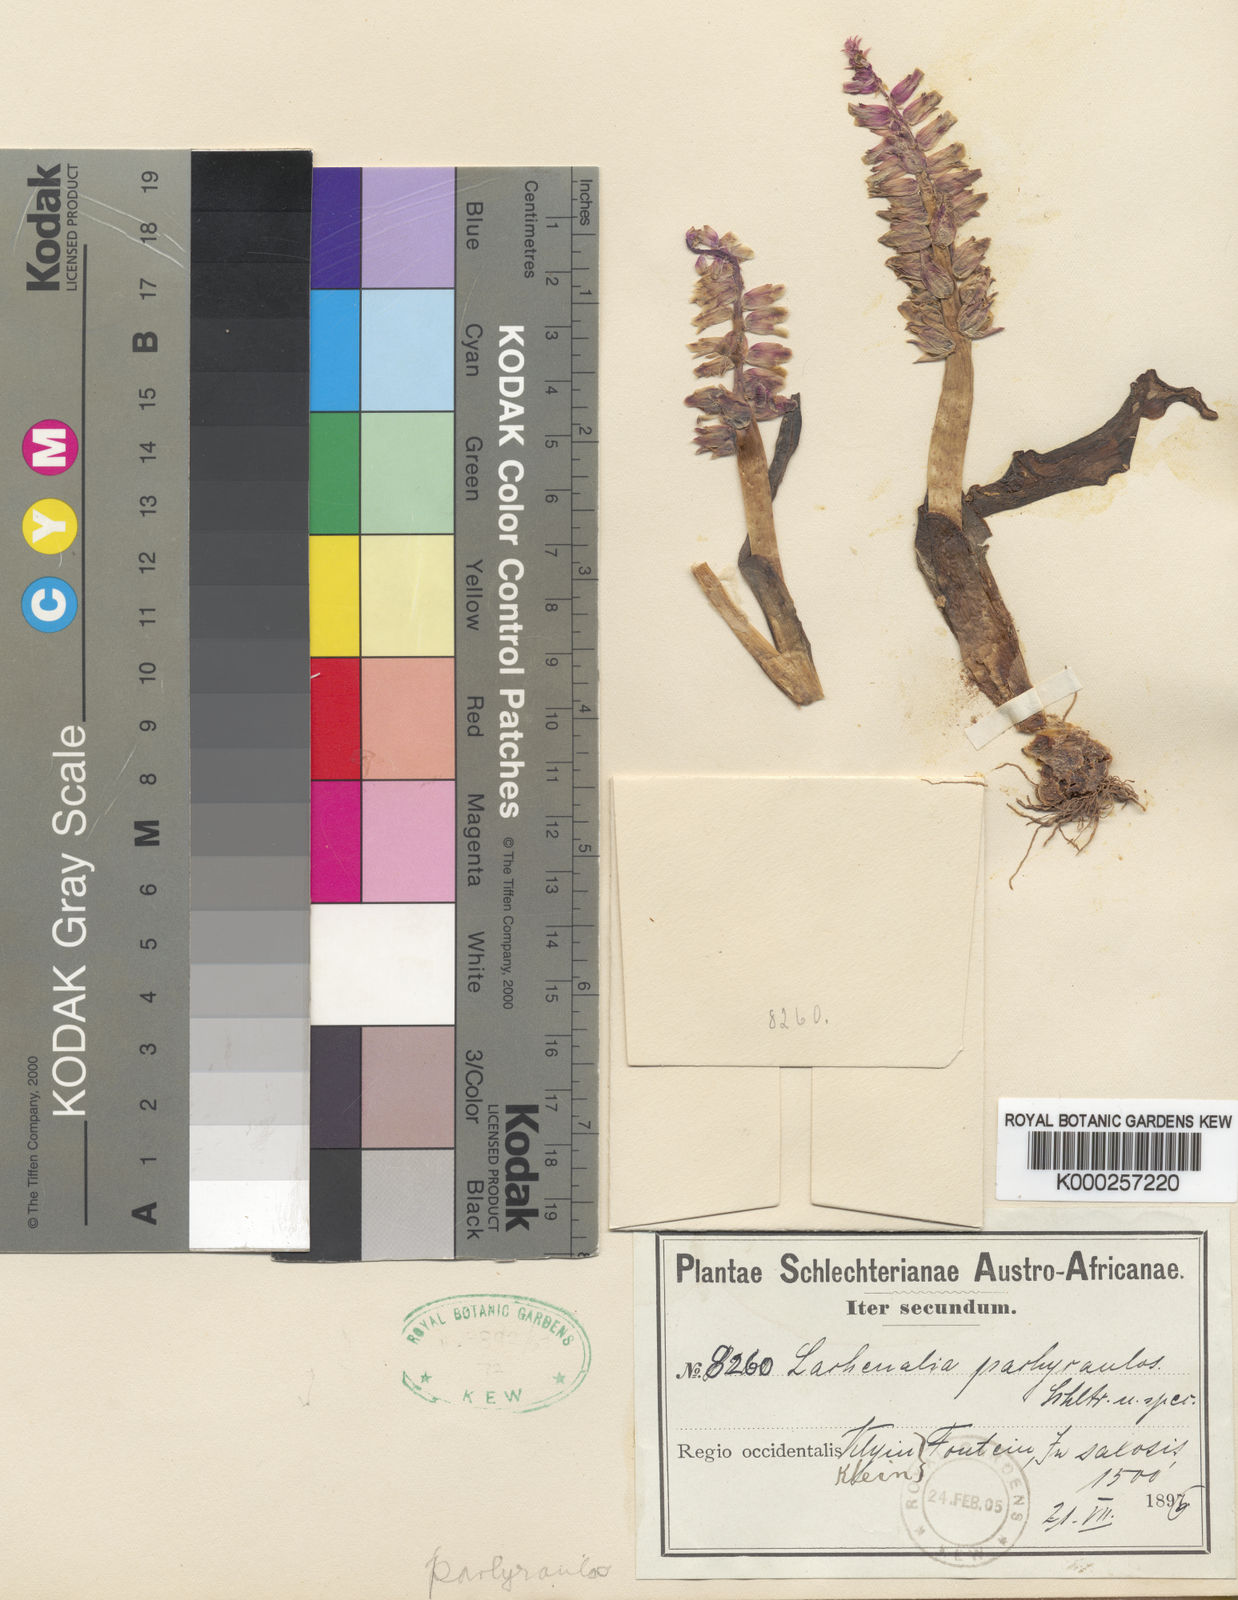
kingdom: Plantae
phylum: Tracheophyta
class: Liliopsida
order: Asparagales
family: Asparagaceae
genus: Lachenalia
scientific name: Lachenalia
